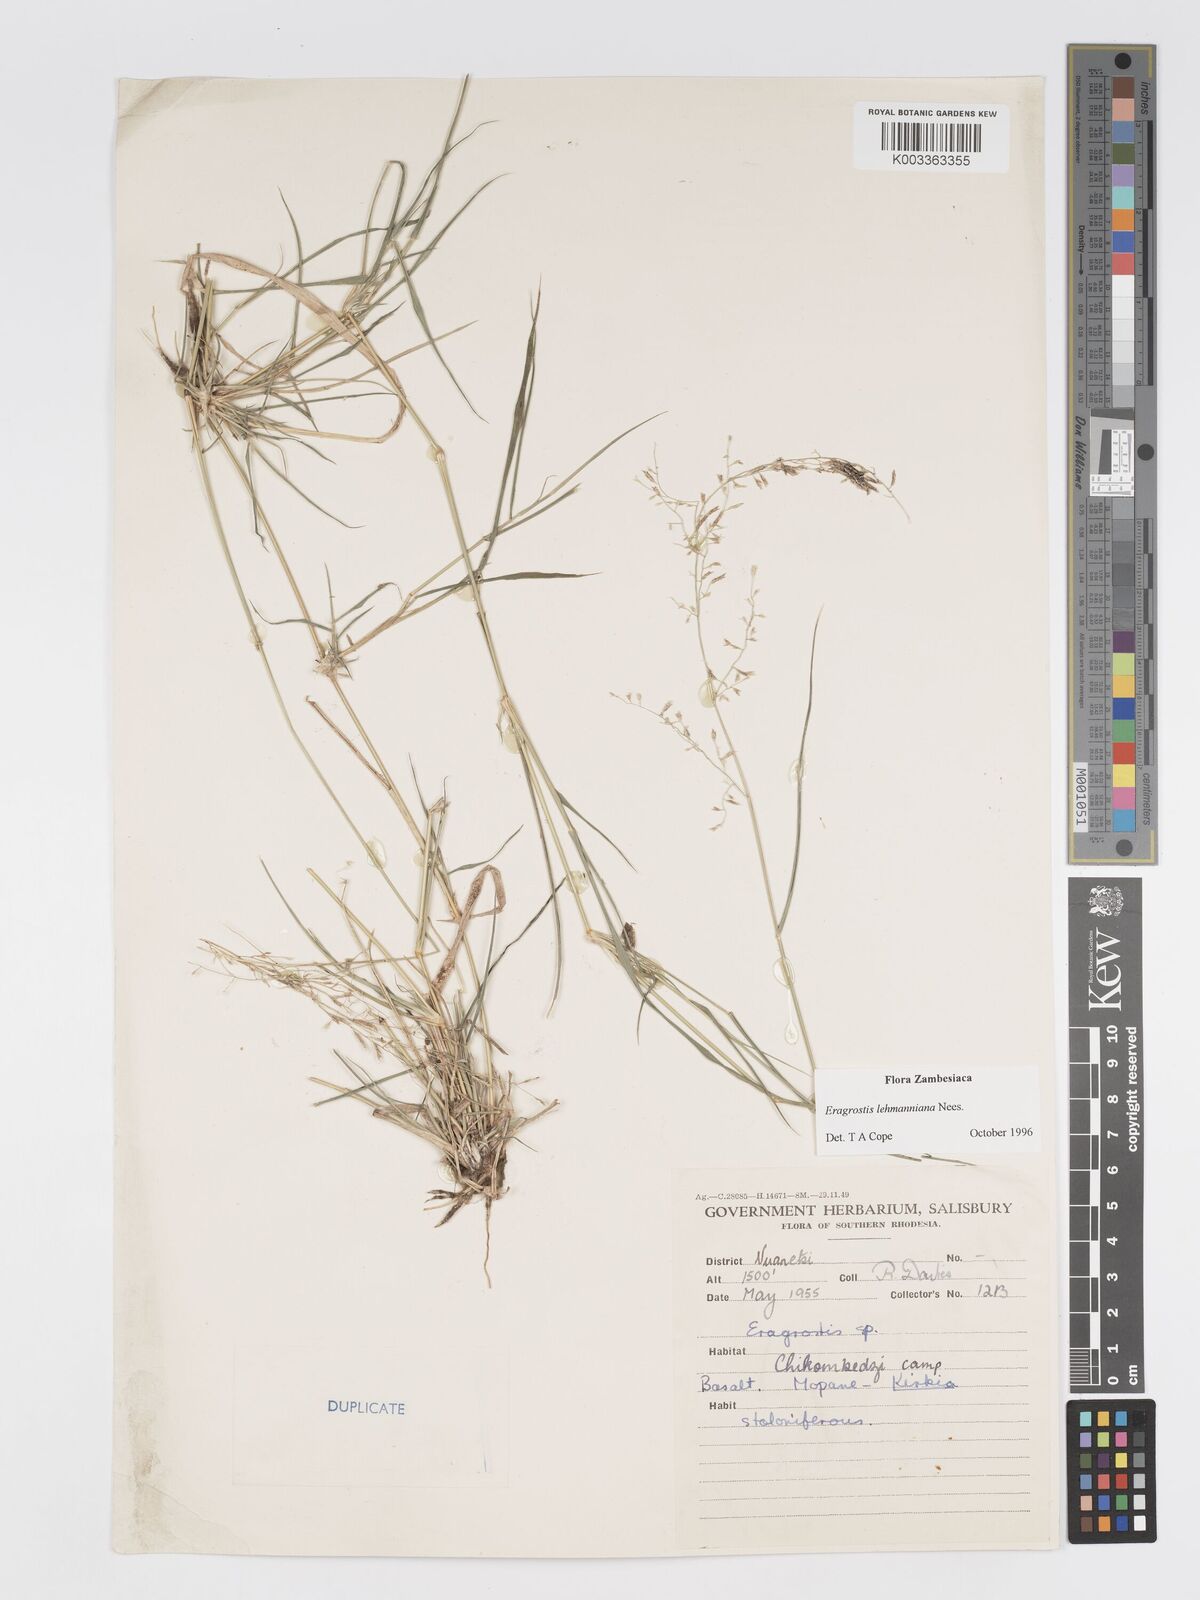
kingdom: Plantae
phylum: Tracheophyta
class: Liliopsida
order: Poales
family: Poaceae
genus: Eragrostis
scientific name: Eragrostis lehmanniana
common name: Lehmann lovegrass
